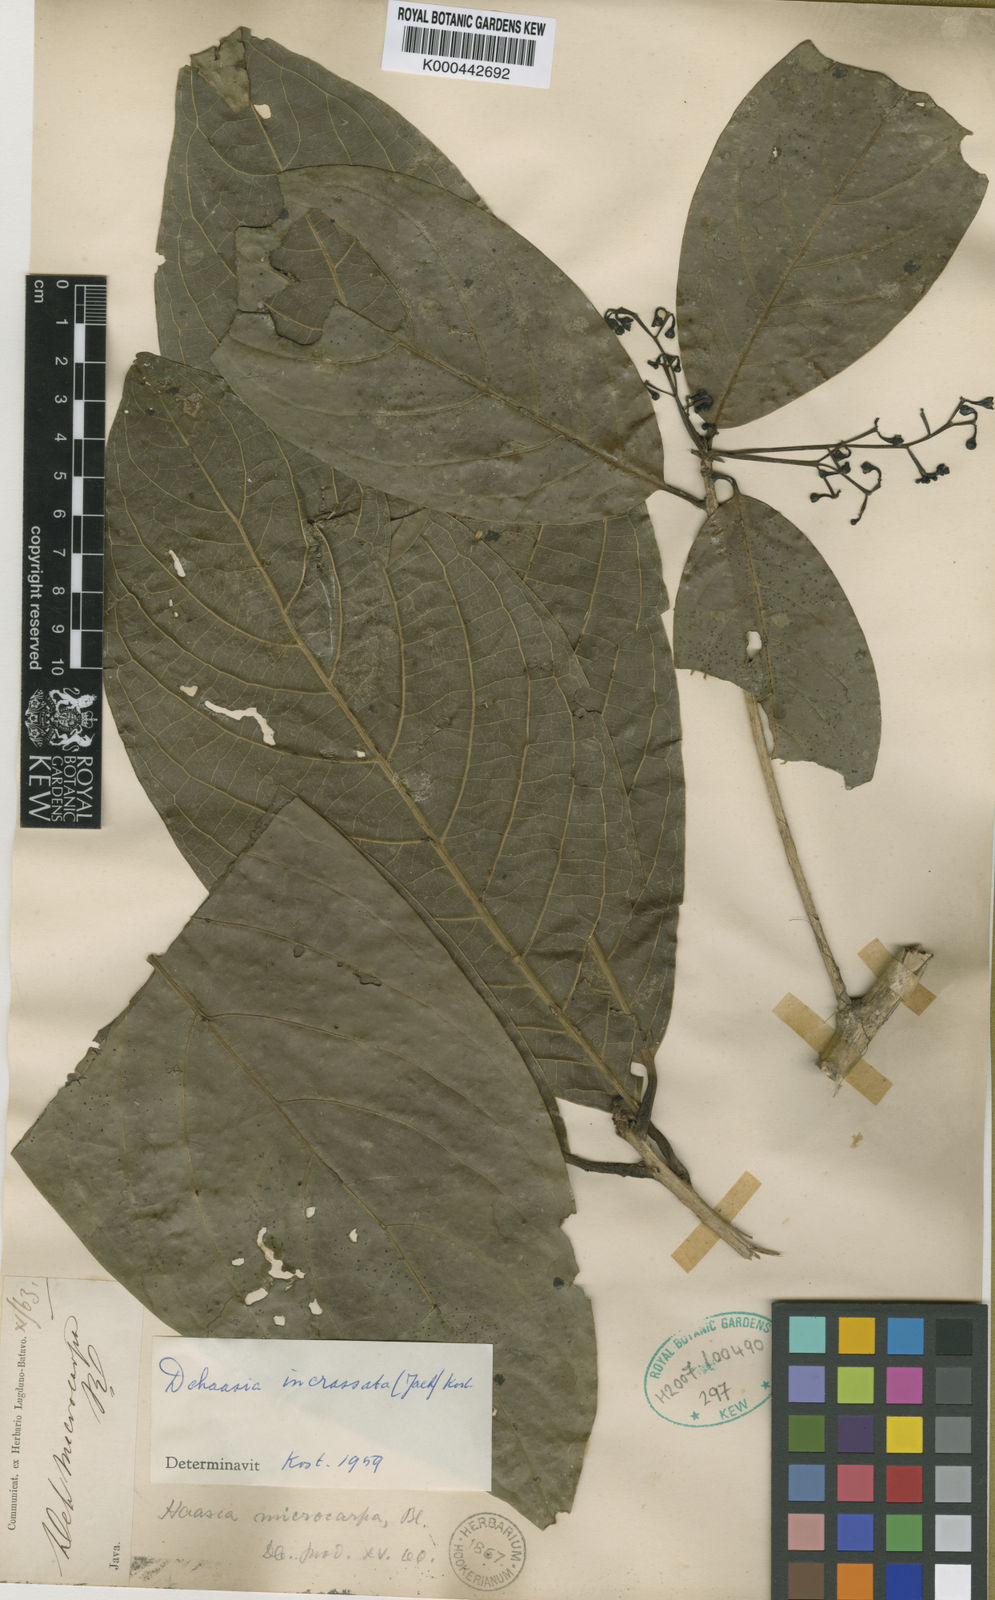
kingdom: Plantae
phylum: Tracheophyta
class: Magnoliopsida
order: Laurales
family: Lauraceae
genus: Dehaasia
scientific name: Dehaasia
